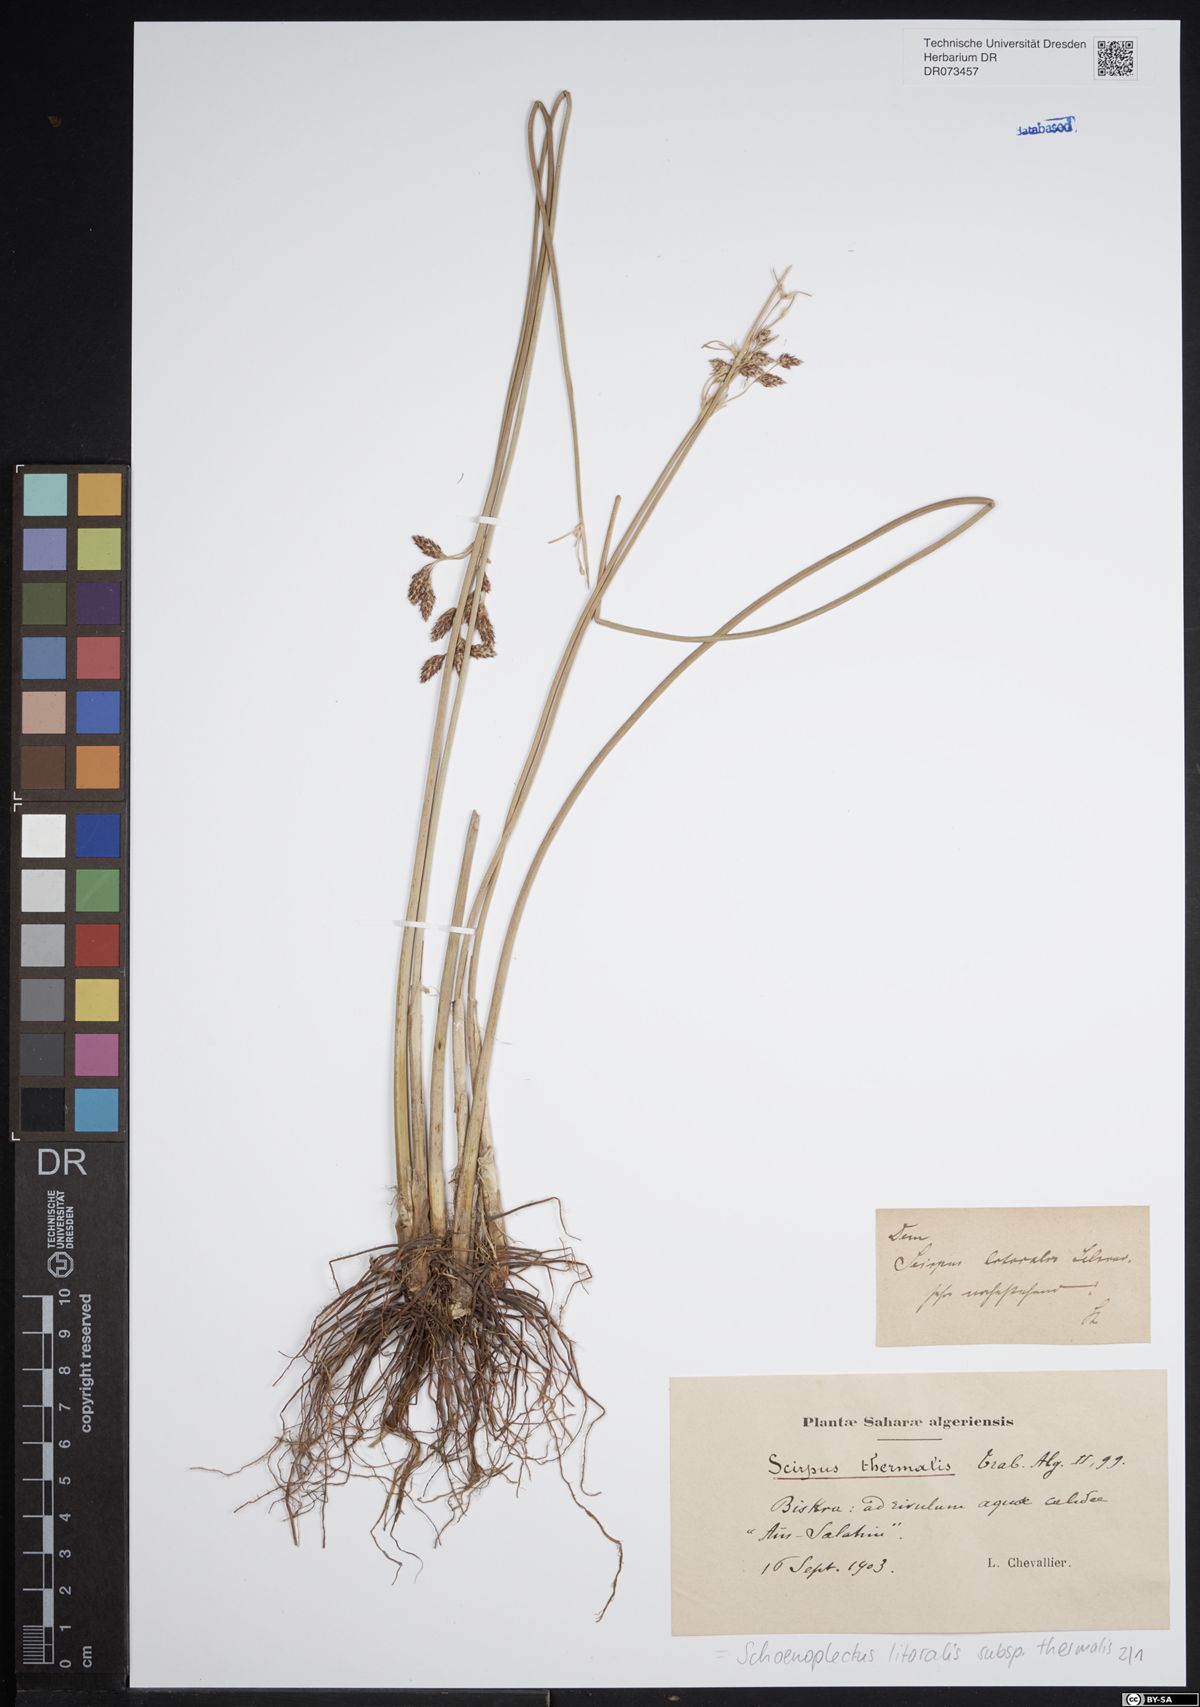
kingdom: Plantae
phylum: Tracheophyta
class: Liliopsida
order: Poales
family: Cyperaceae
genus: Schoenoplectus
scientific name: Schoenoplectus subulatus
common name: Coast club-rush
